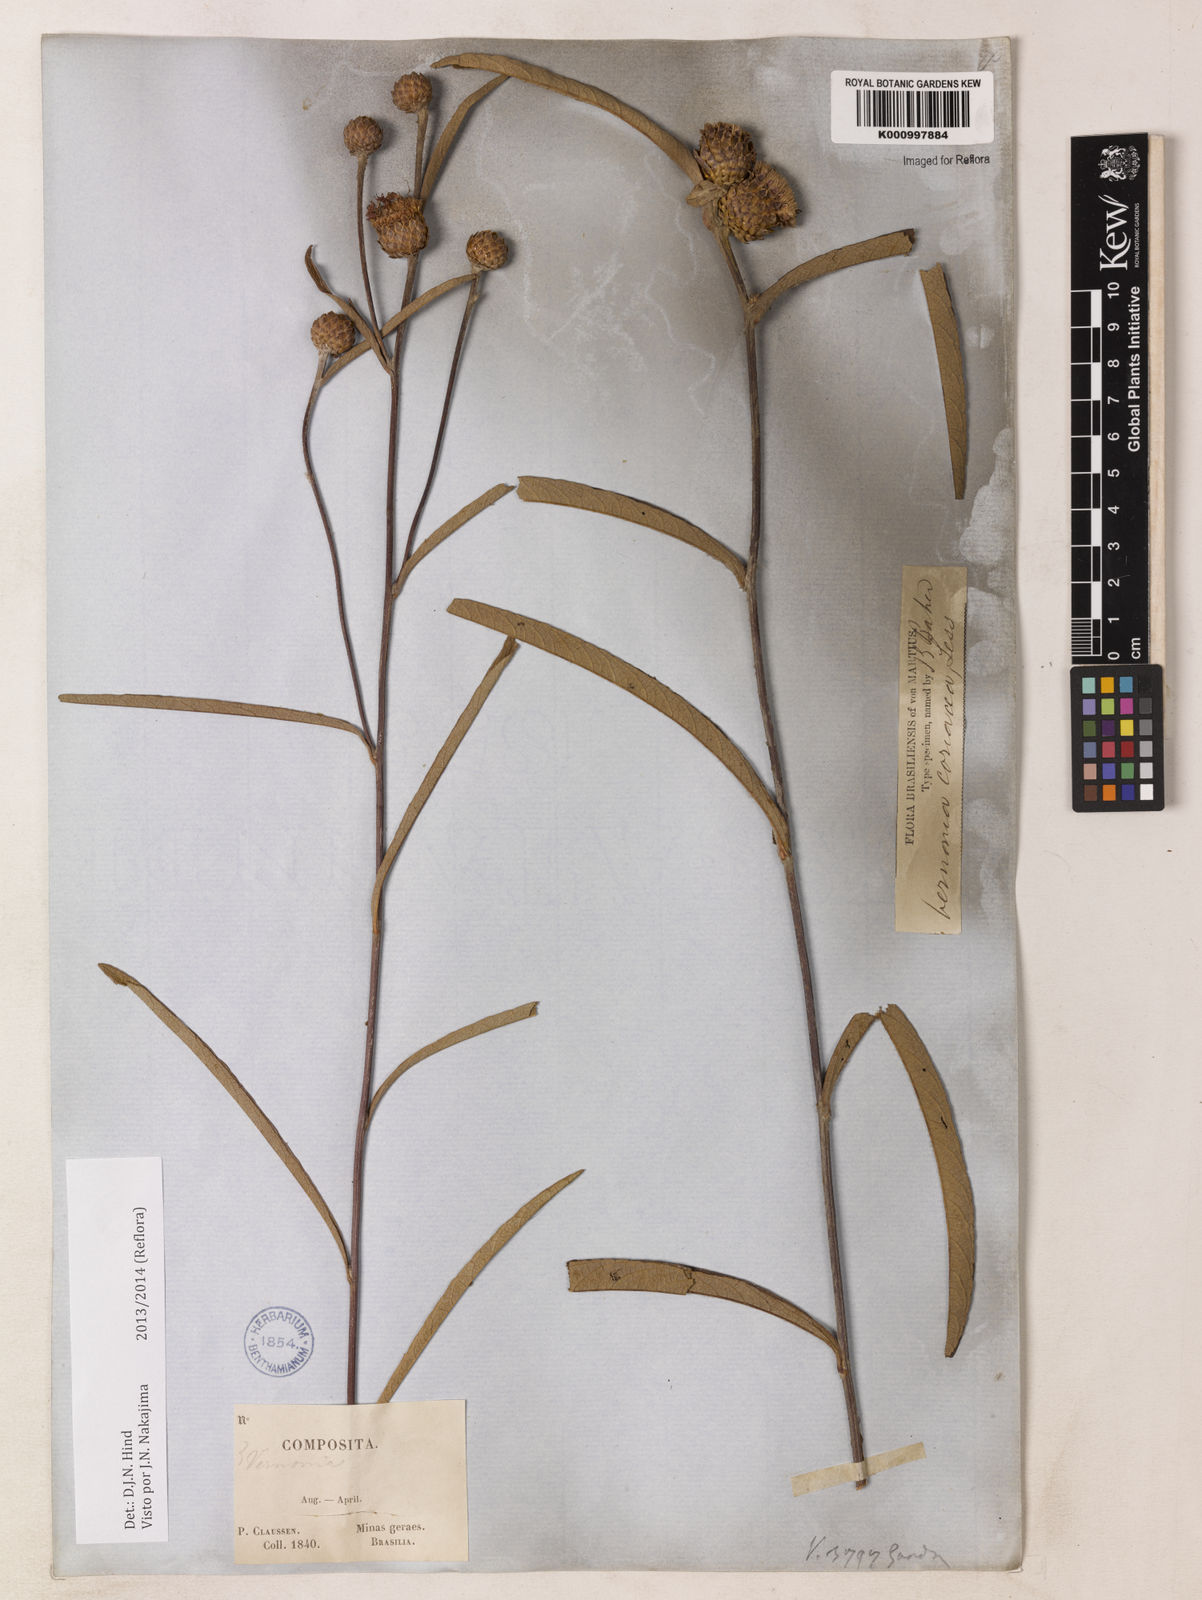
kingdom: Plantae
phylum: Tracheophyta
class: Magnoliopsida
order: Asterales
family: Asteraceae
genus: Lessingianthus
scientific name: Lessingianthus coriaceus
